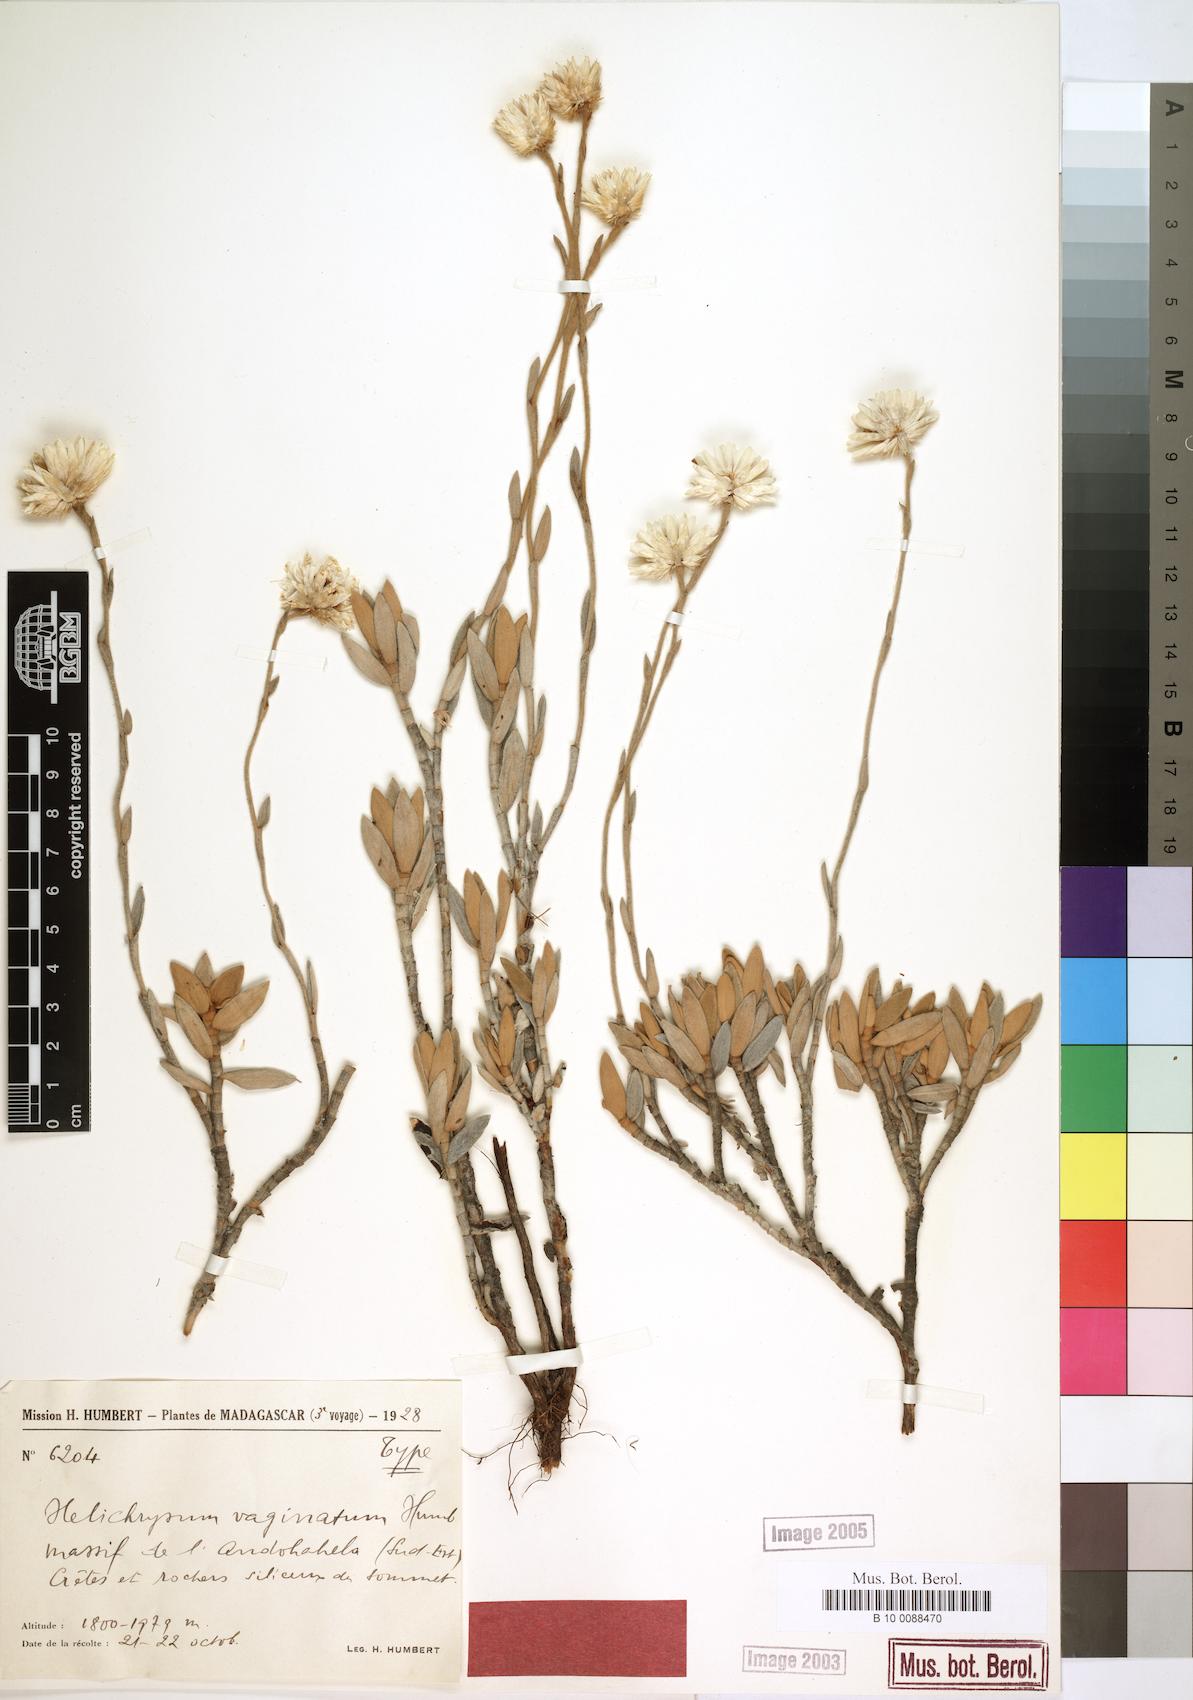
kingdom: Plantae
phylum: Tracheophyta
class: Magnoliopsida
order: Asterales
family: Asteraceae
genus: Helichrysum
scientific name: Helichrysum vaginatum
